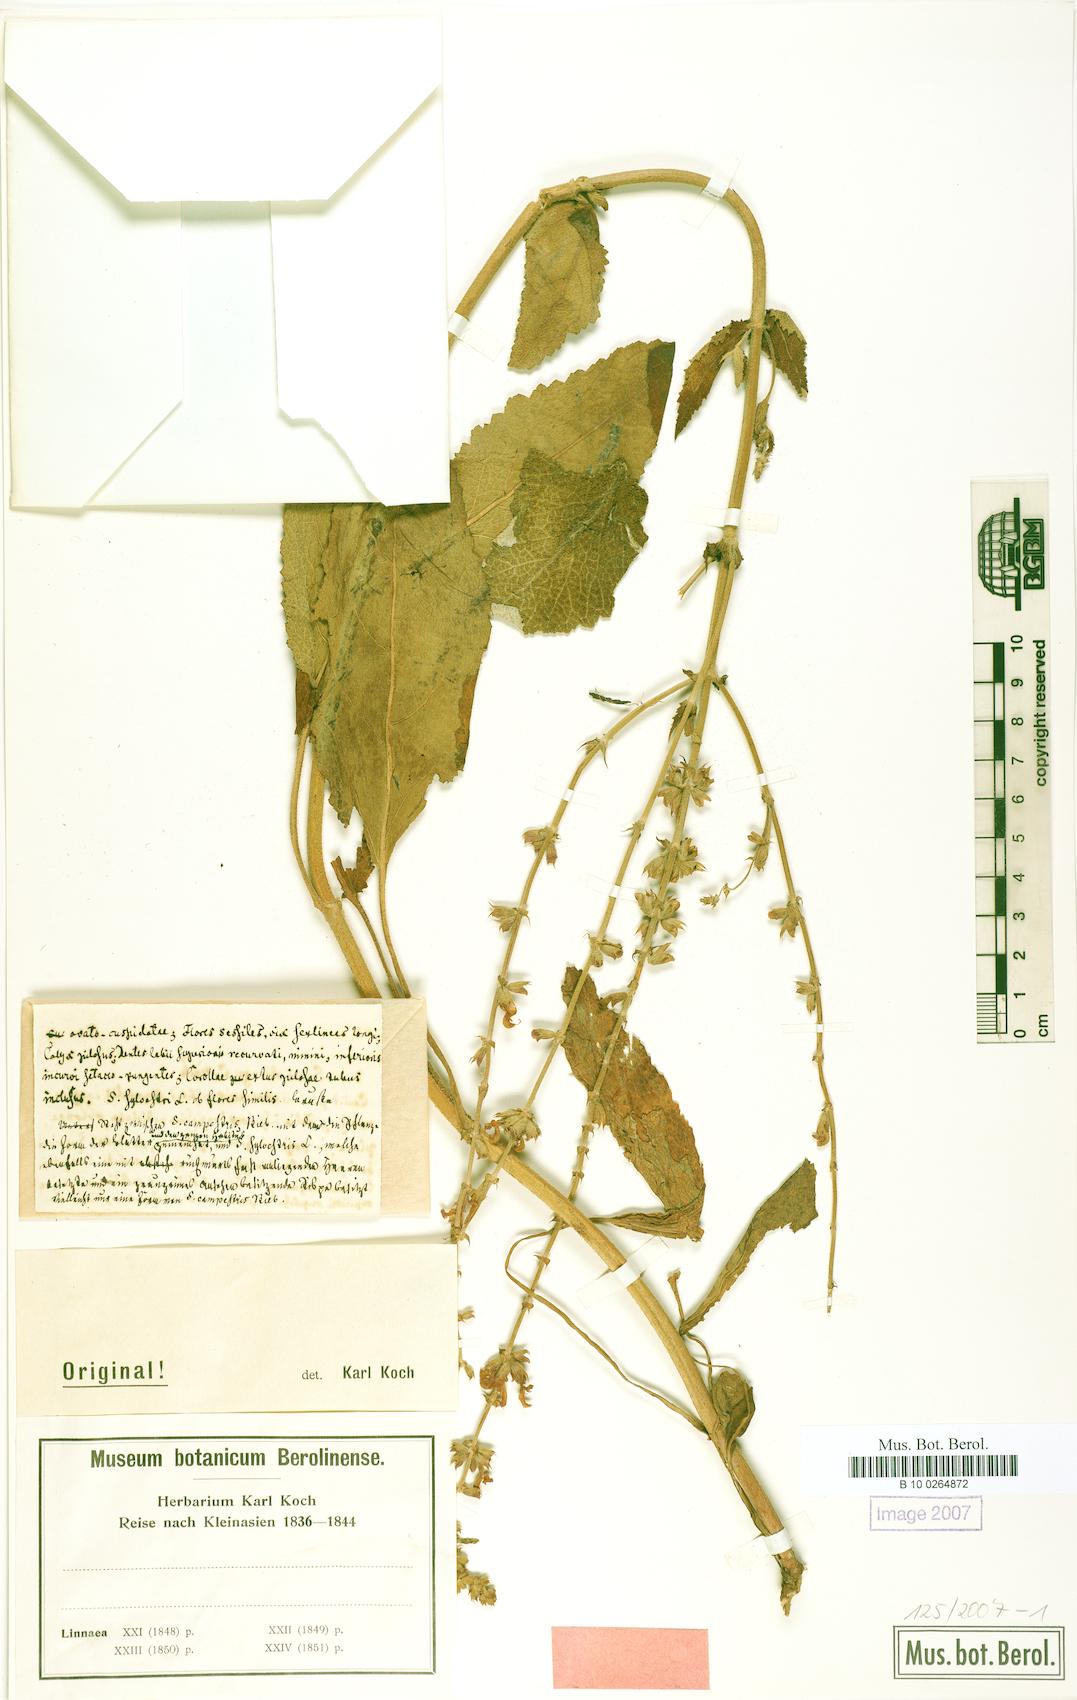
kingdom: Plantae
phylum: Tracheophyta
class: Magnoliopsida
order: Lamiales
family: Lamiaceae
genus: Salvia
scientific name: Salvia virgata
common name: Wand sage
